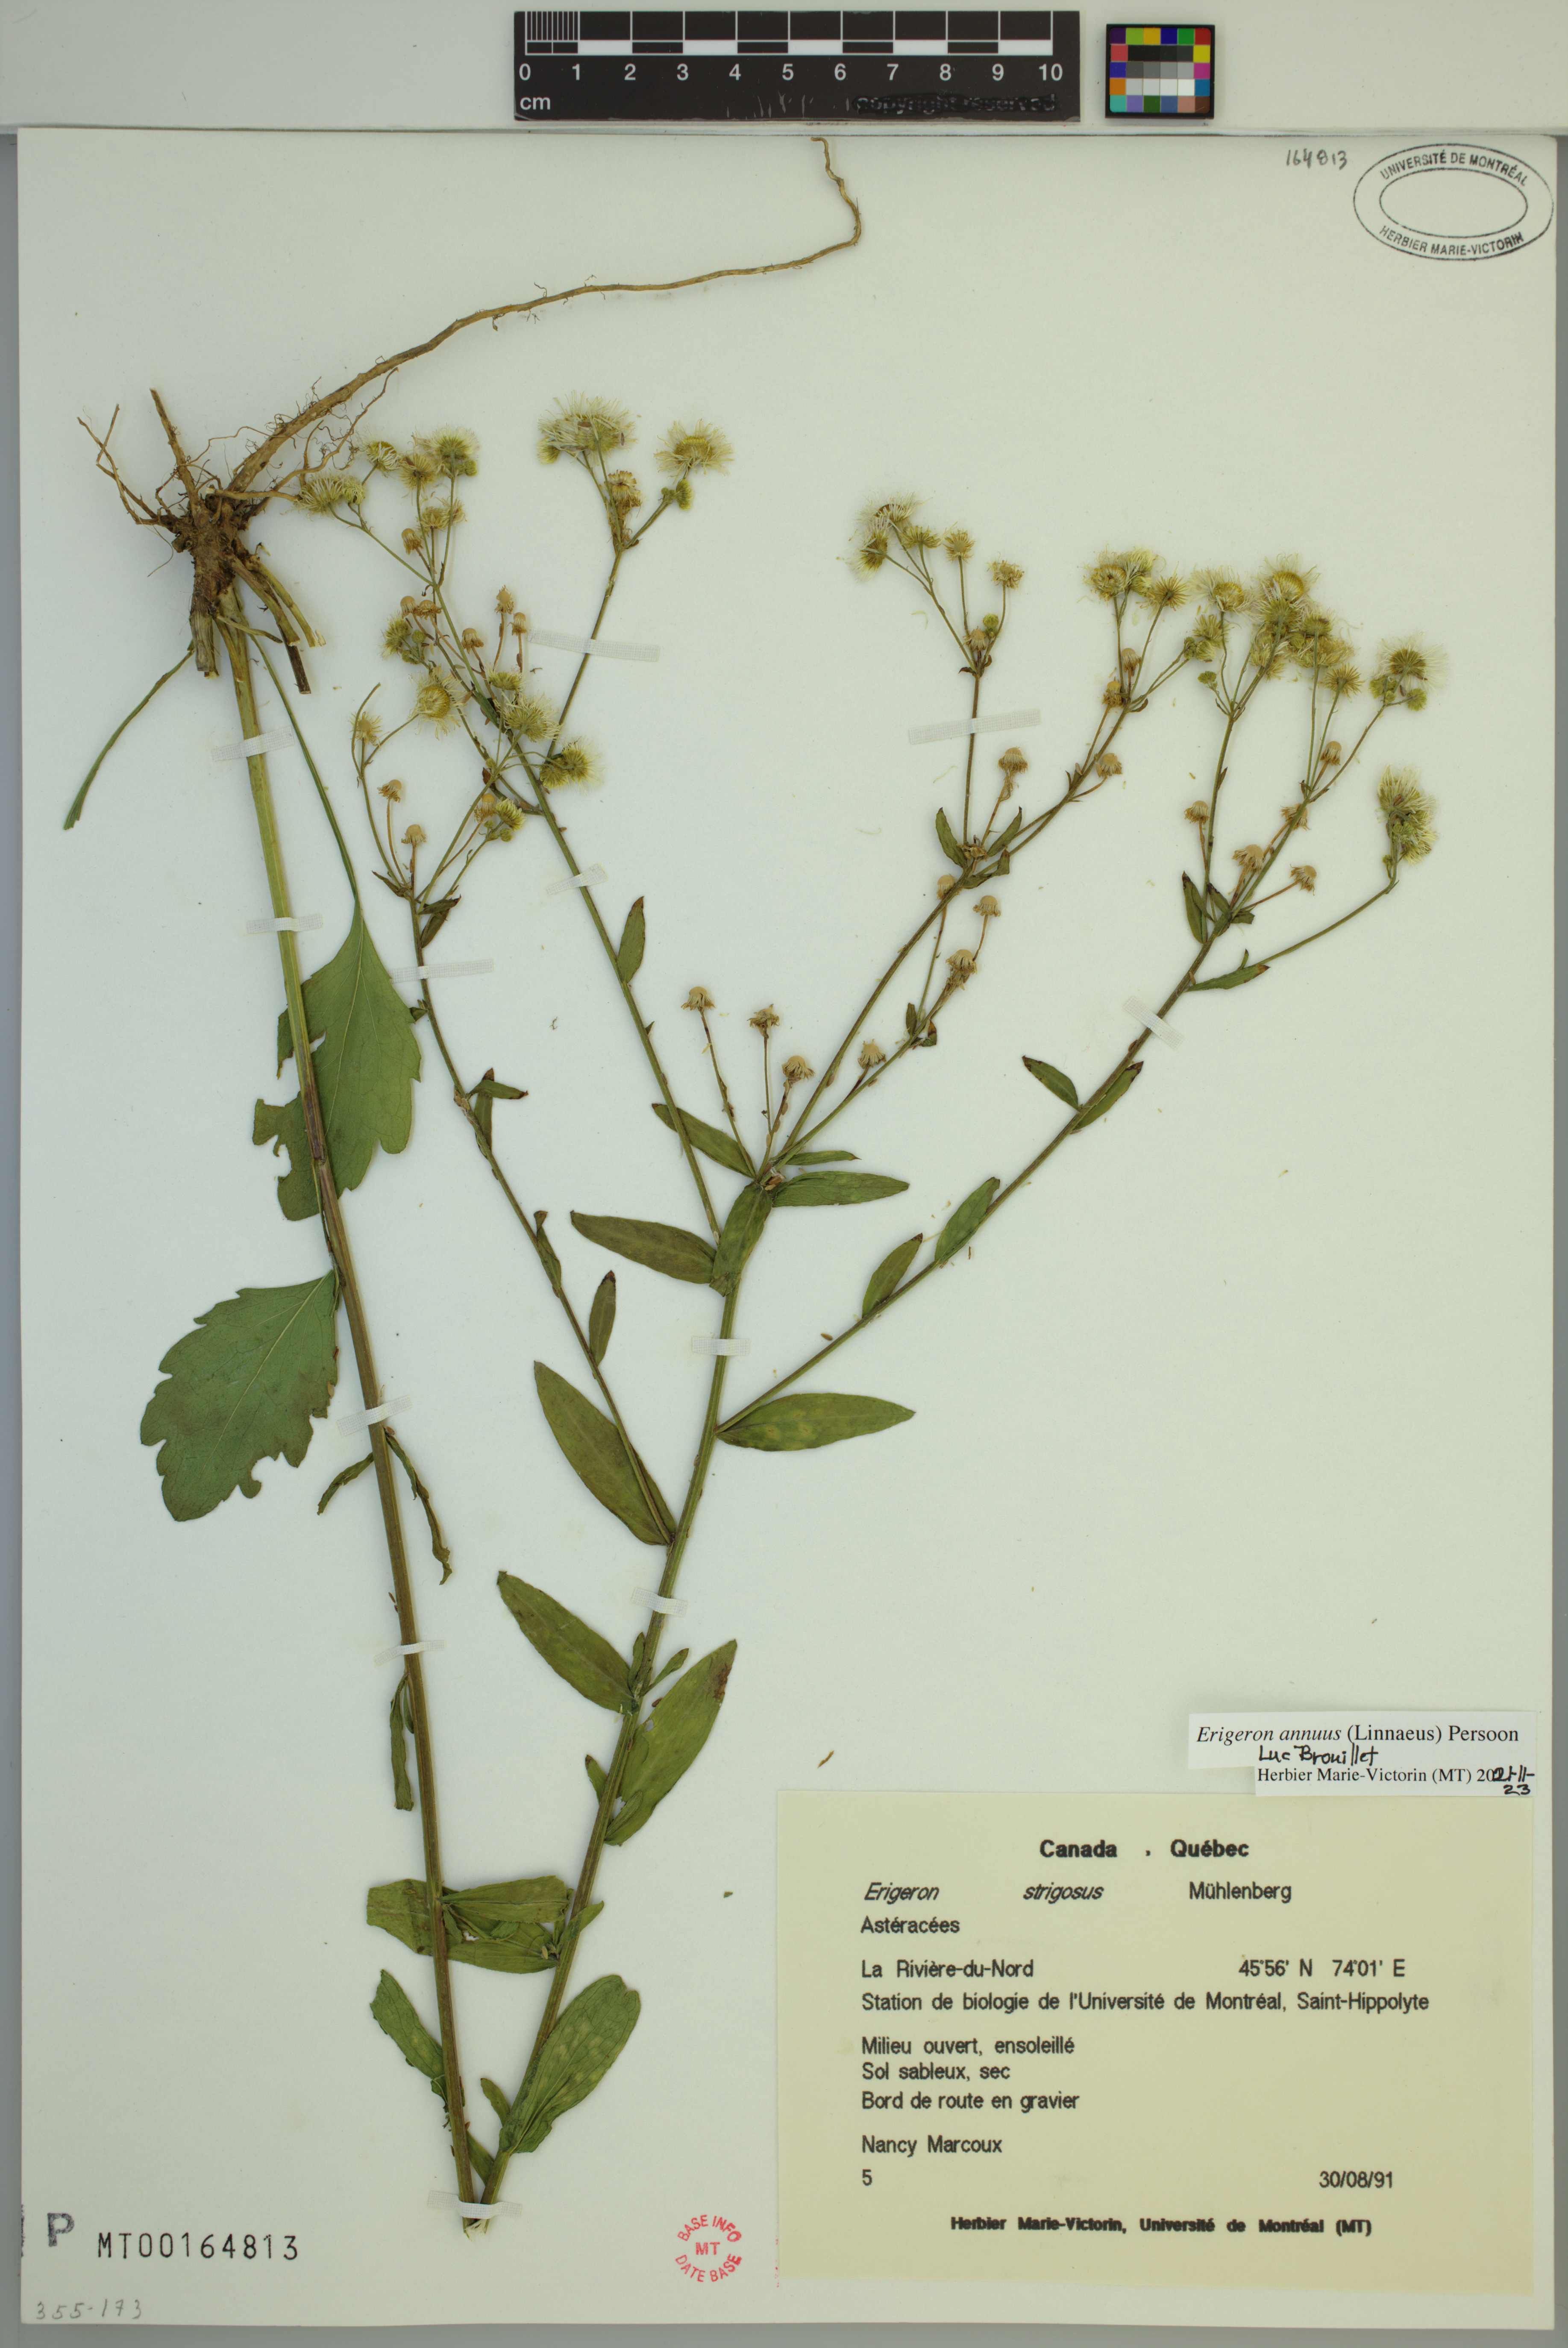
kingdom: Plantae
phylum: Tracheophyta
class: Magnoliopsida
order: Asterales
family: Asteraceae
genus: Erigeron
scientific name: Erigeron annuus
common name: Tall fleabane
